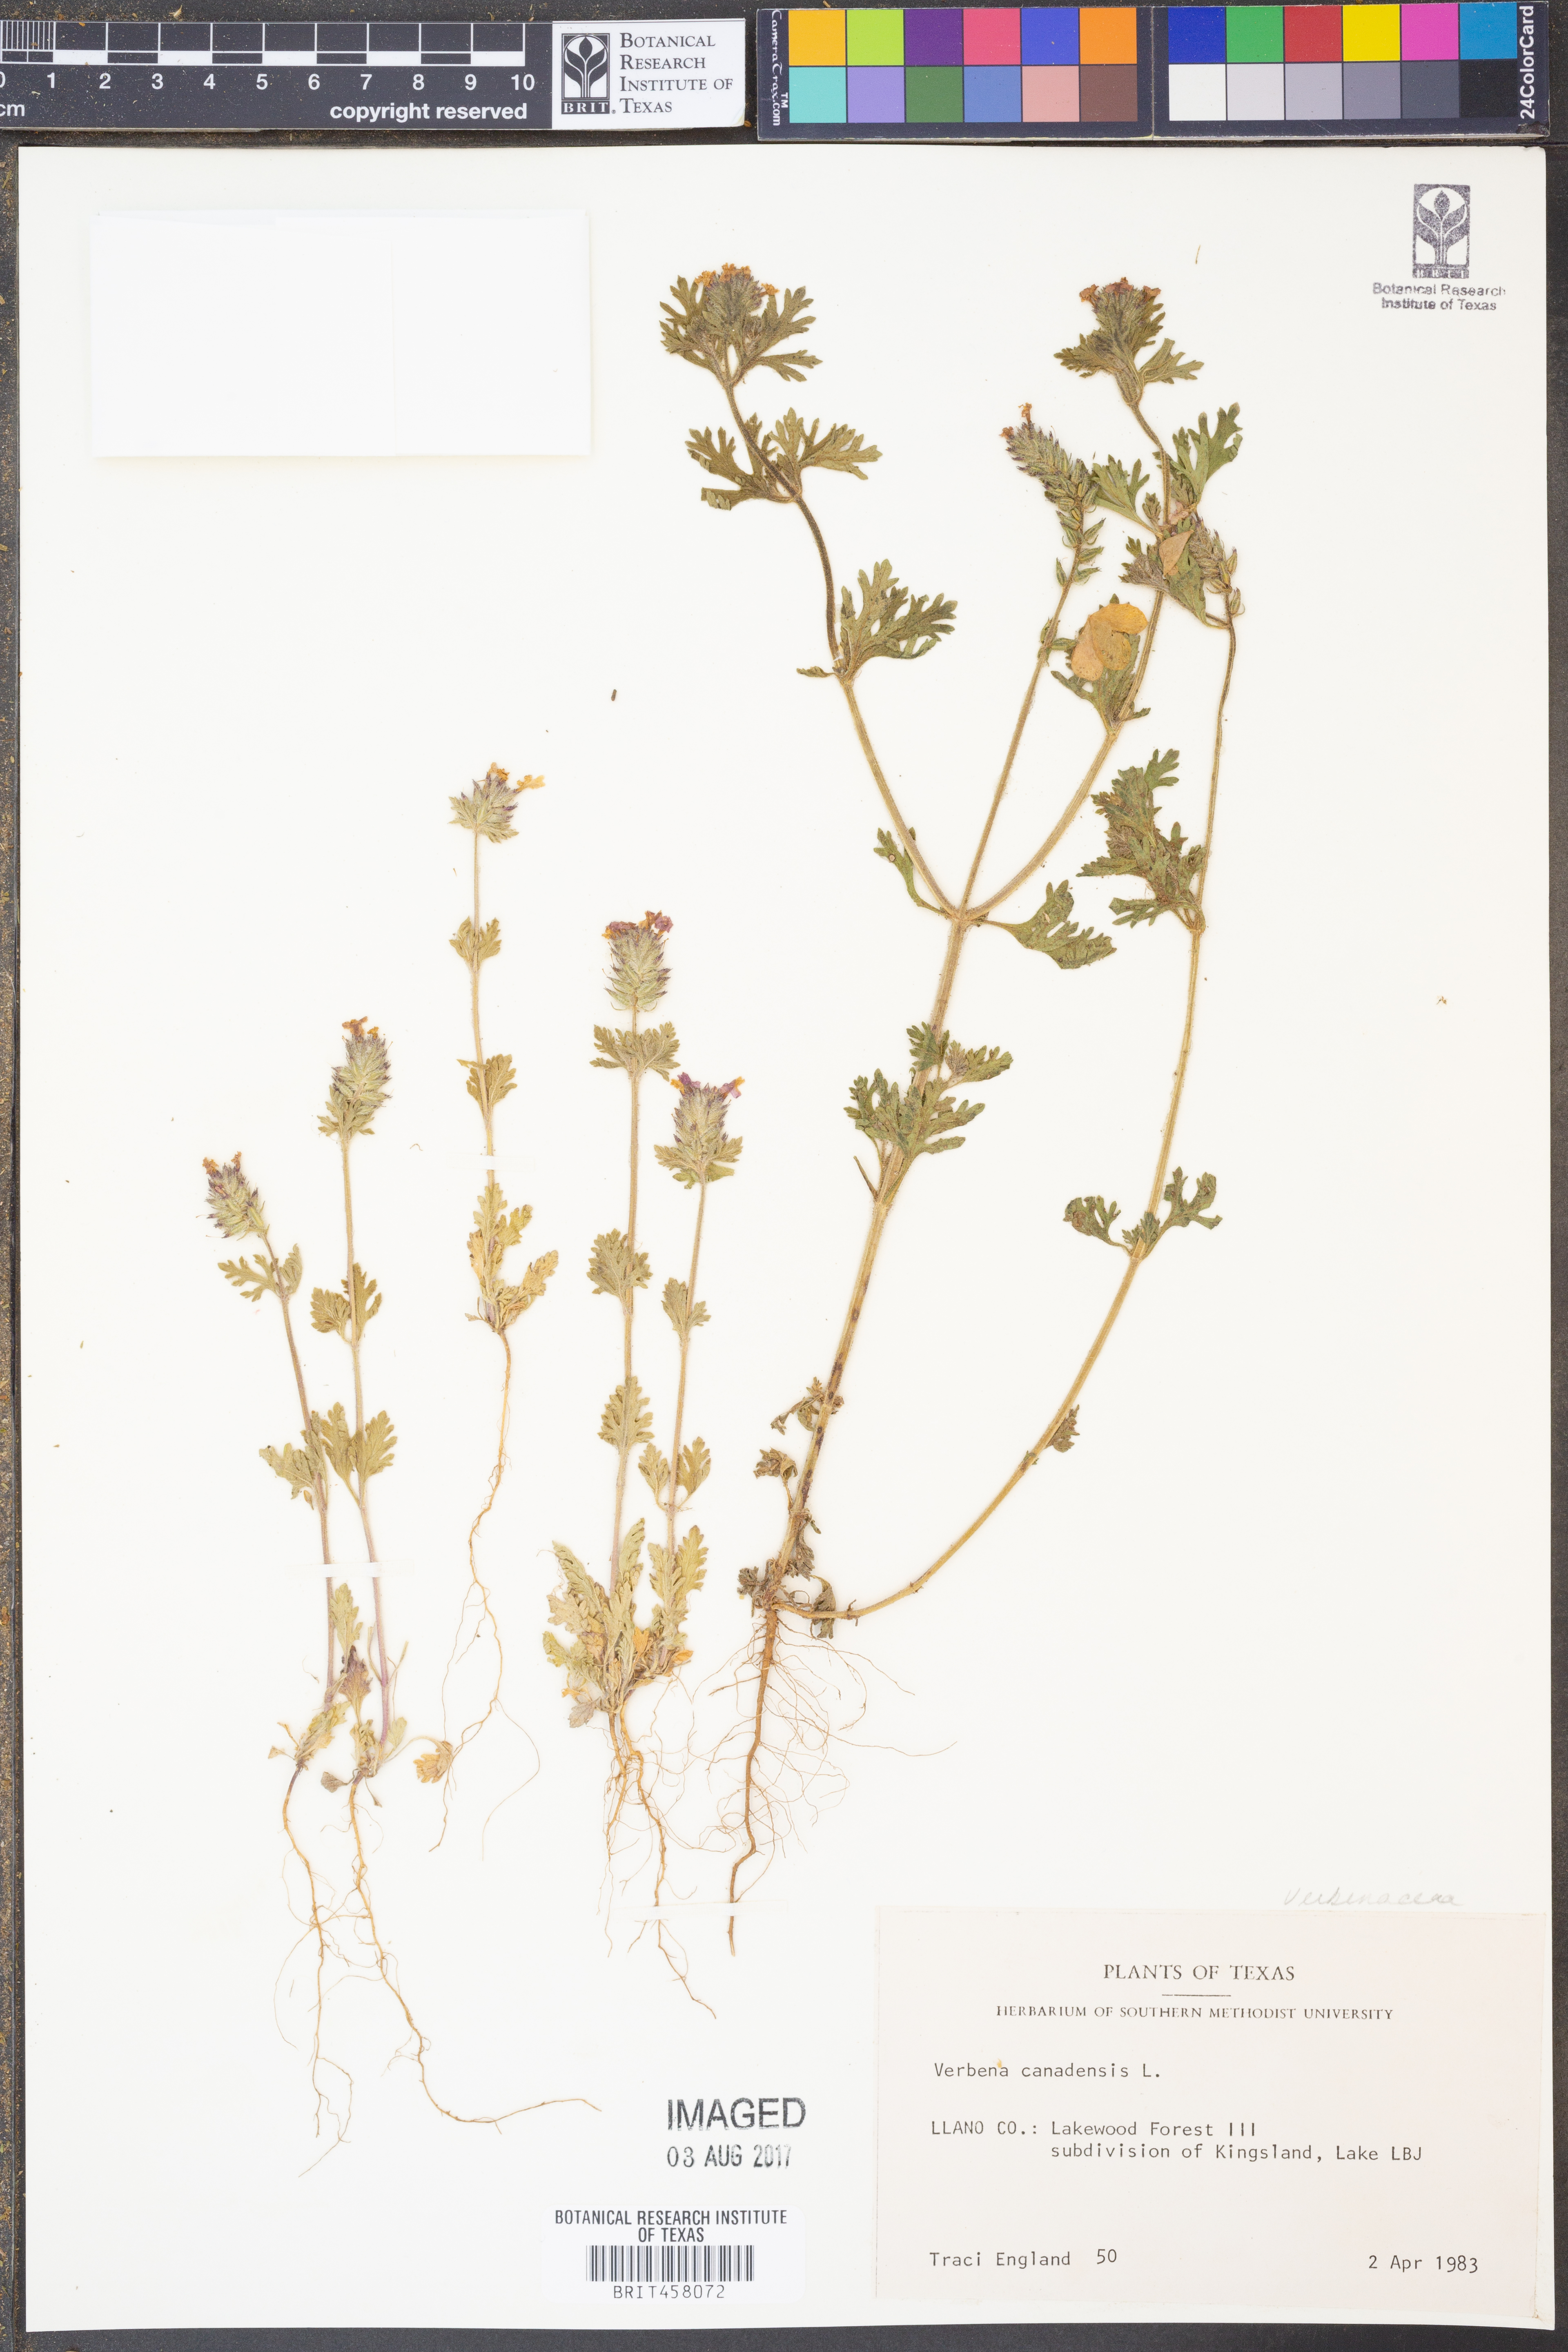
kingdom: Plantae
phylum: Tracheophyta
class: Magnoliopsida
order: Lamiales
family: Verbenaceae
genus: Verbena
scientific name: Verbena canadensis
